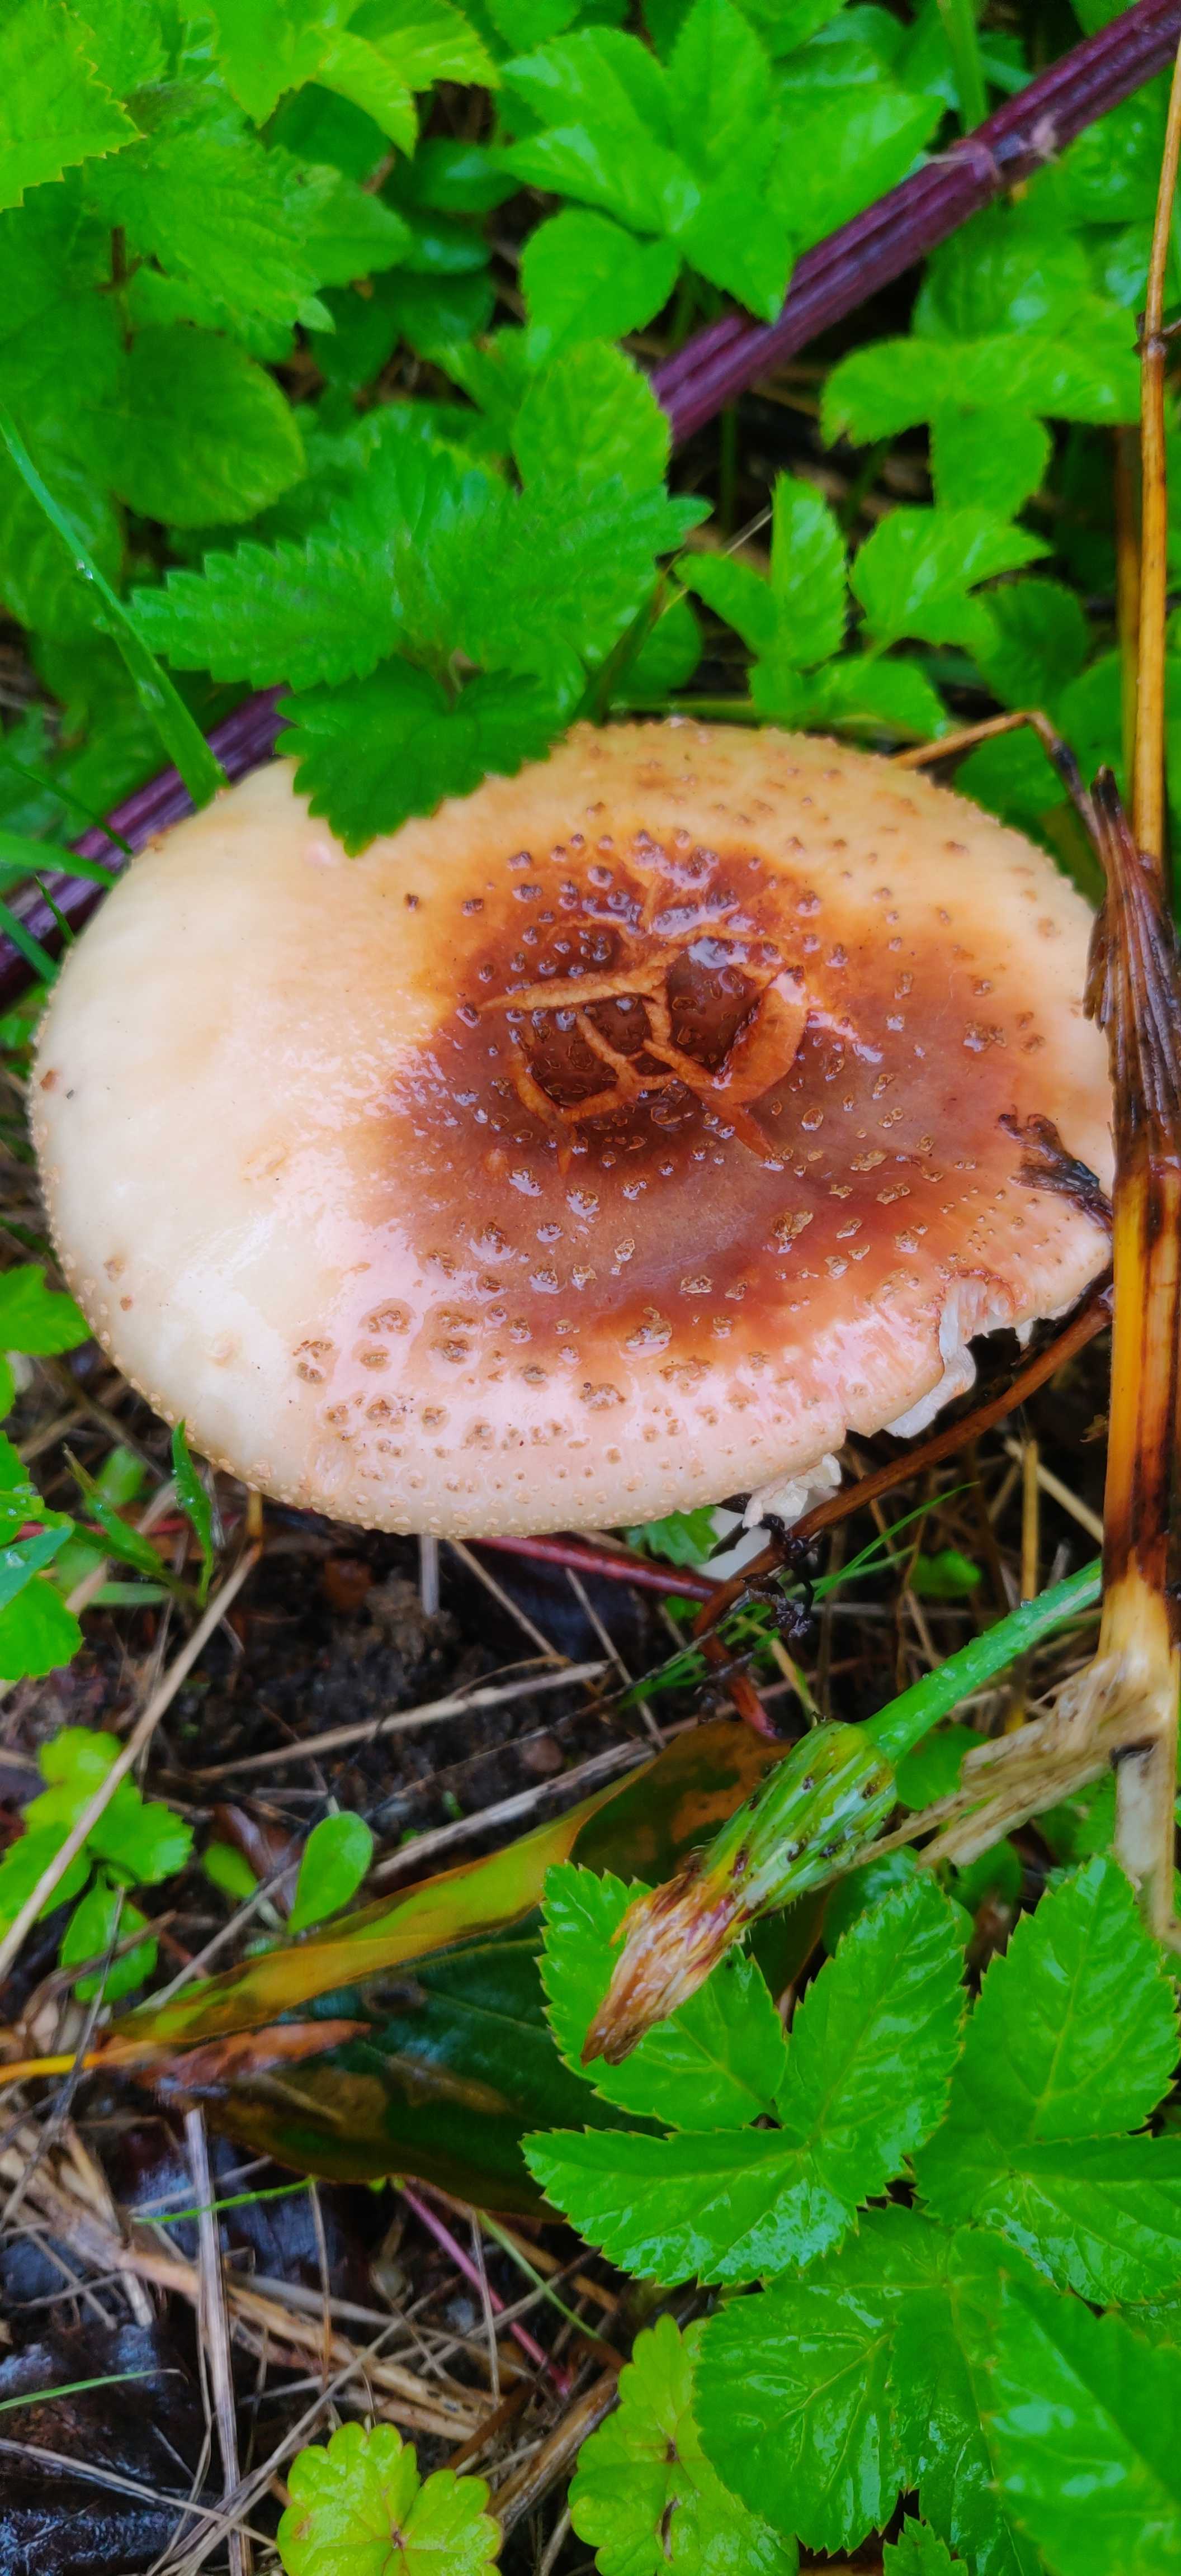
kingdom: Fungi
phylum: Basidiomycota
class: Agaricomycetes
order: Agaricales
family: Amanitaceae
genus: Amanita
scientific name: Amanita rubescens
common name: rødmende fluesvamp
